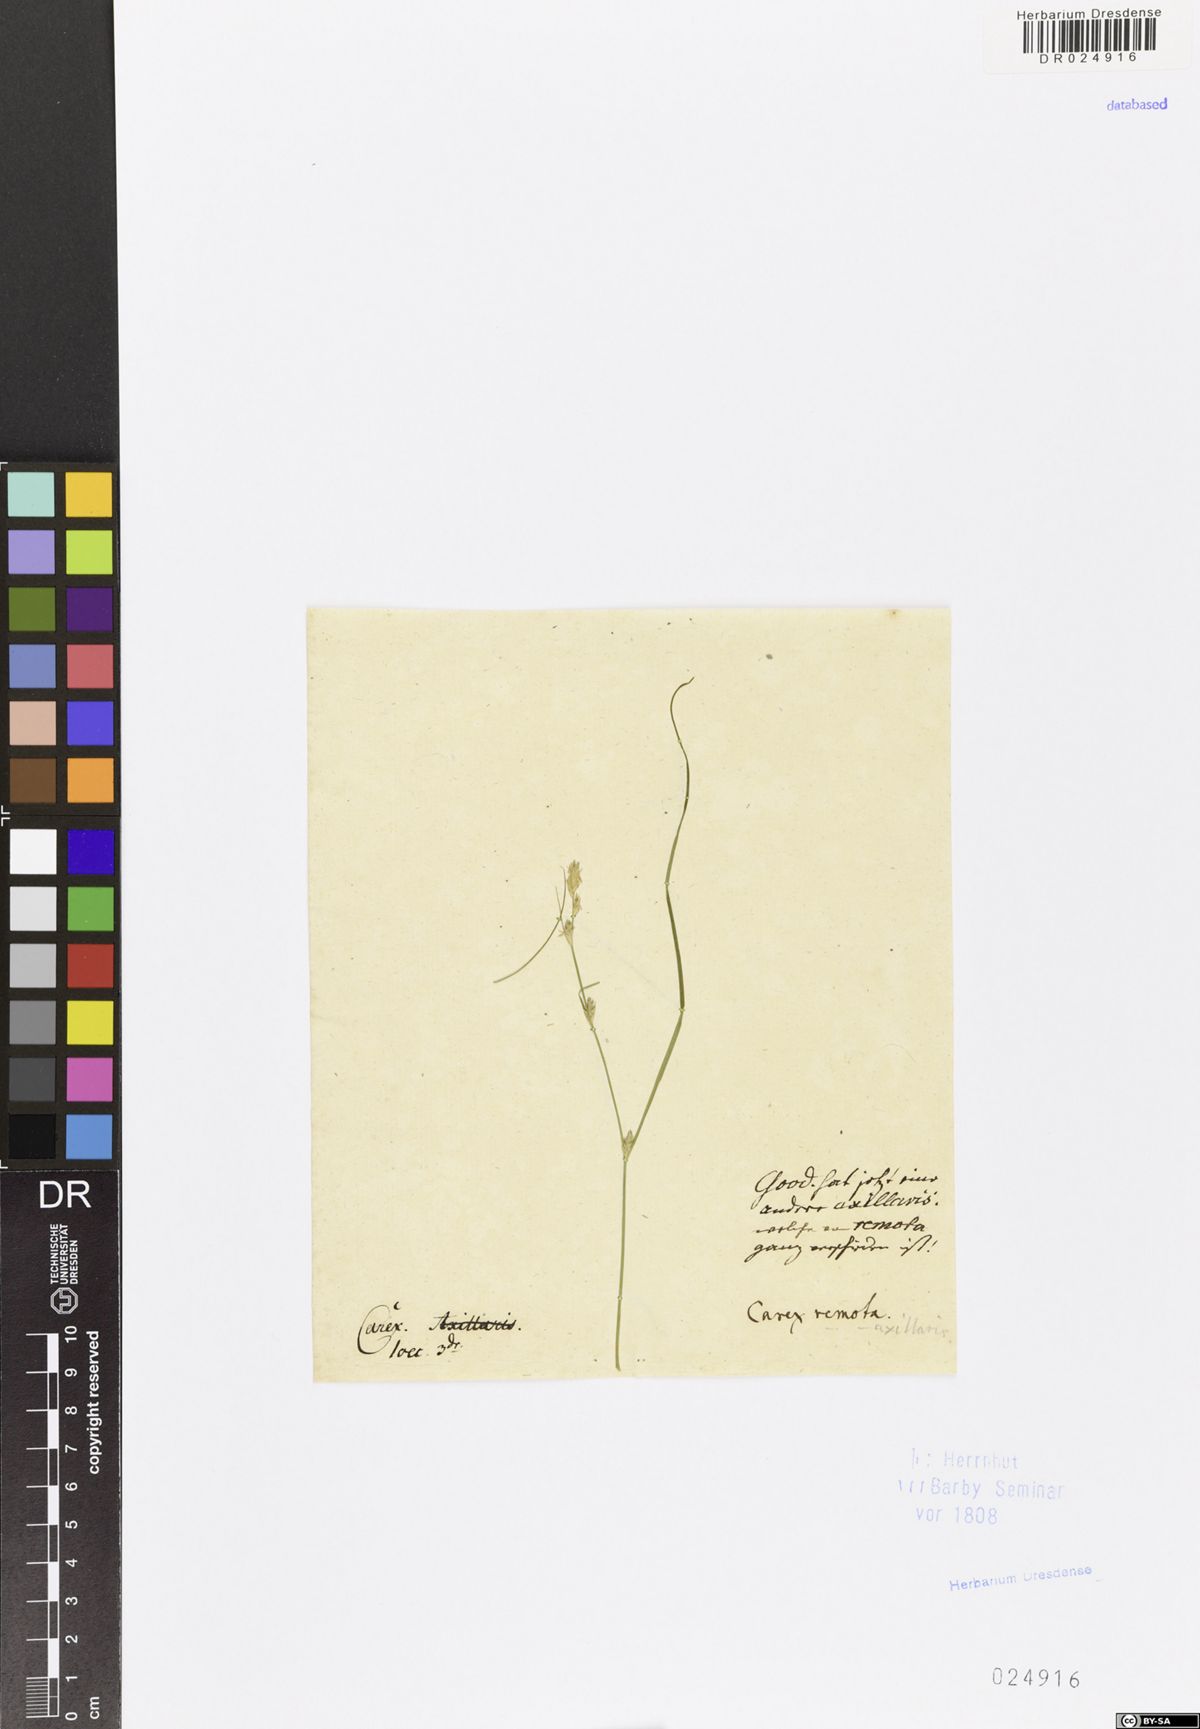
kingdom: Plantae
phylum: Tracheophyta
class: Liliopsida
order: Poales
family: Cyperaceae
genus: Carex
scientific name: Carex remota
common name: Remote sedge
